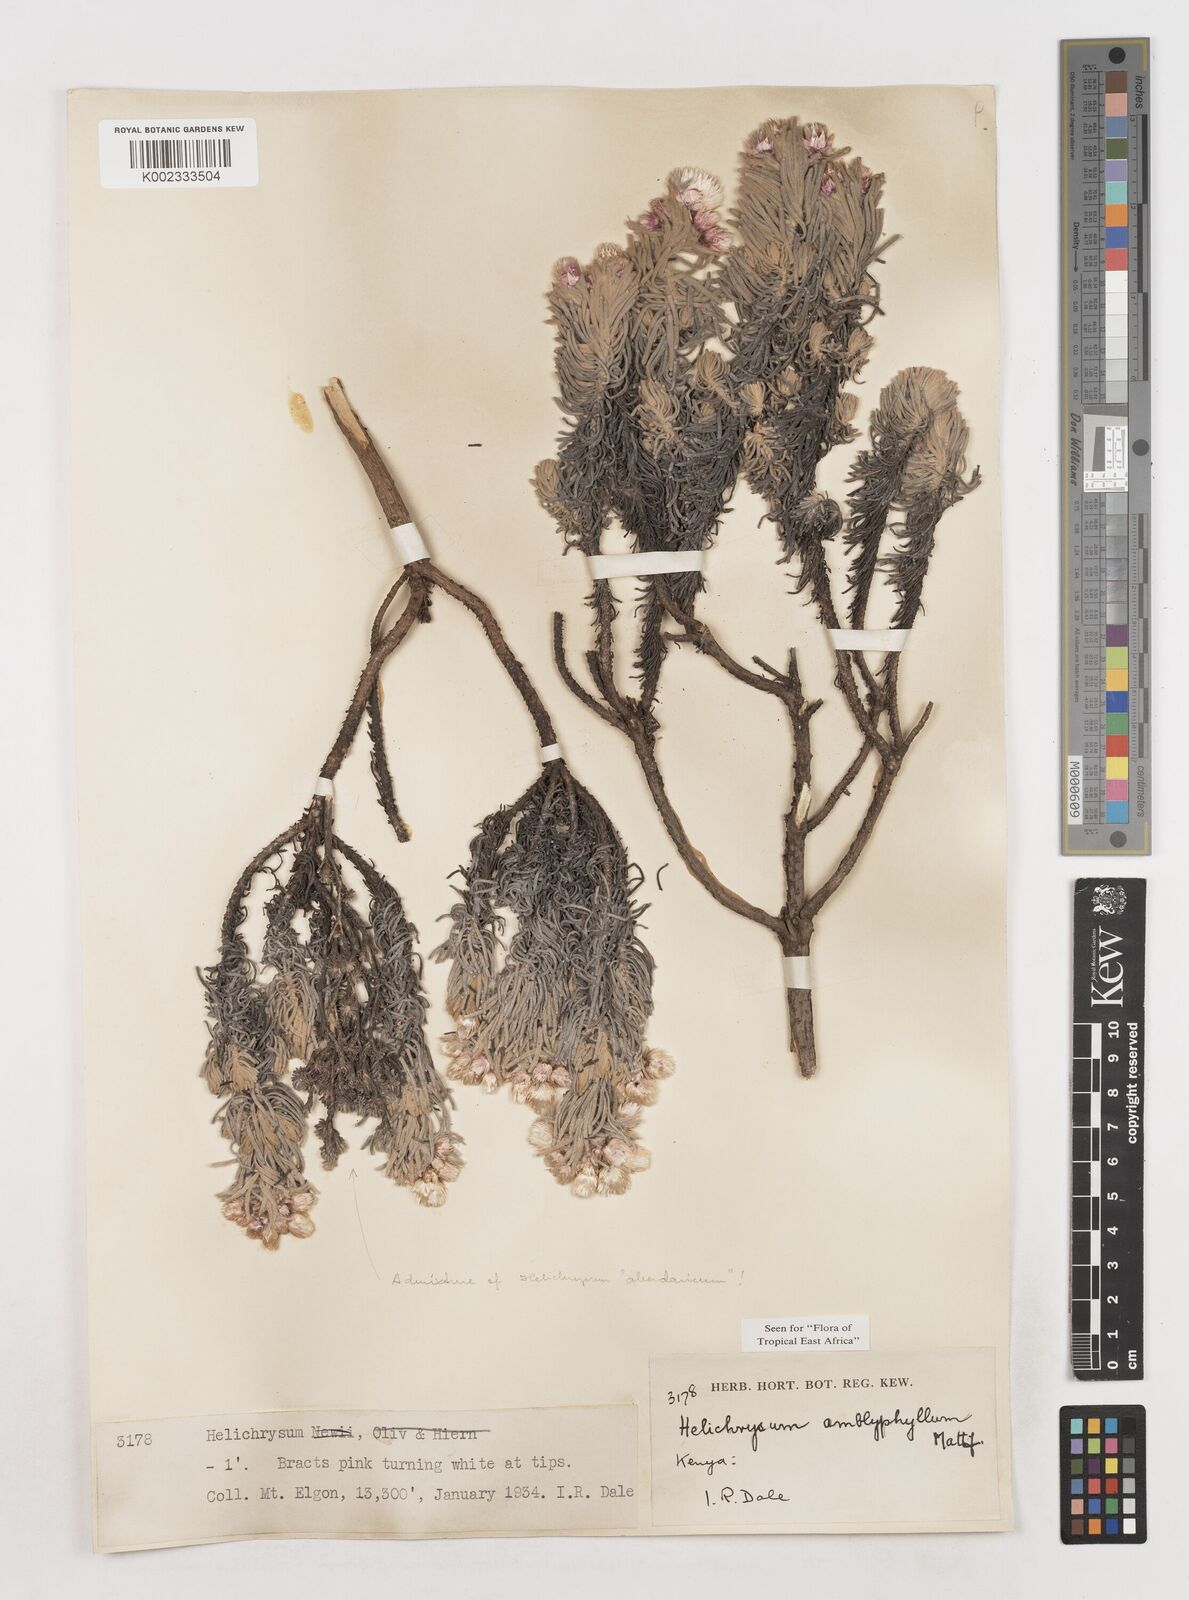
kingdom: Plantae
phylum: Tracheophyta
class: Magnoliopsida
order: Asterales
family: Asteraceae
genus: Helichrysum
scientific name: Helichrysum amblyphyllum
